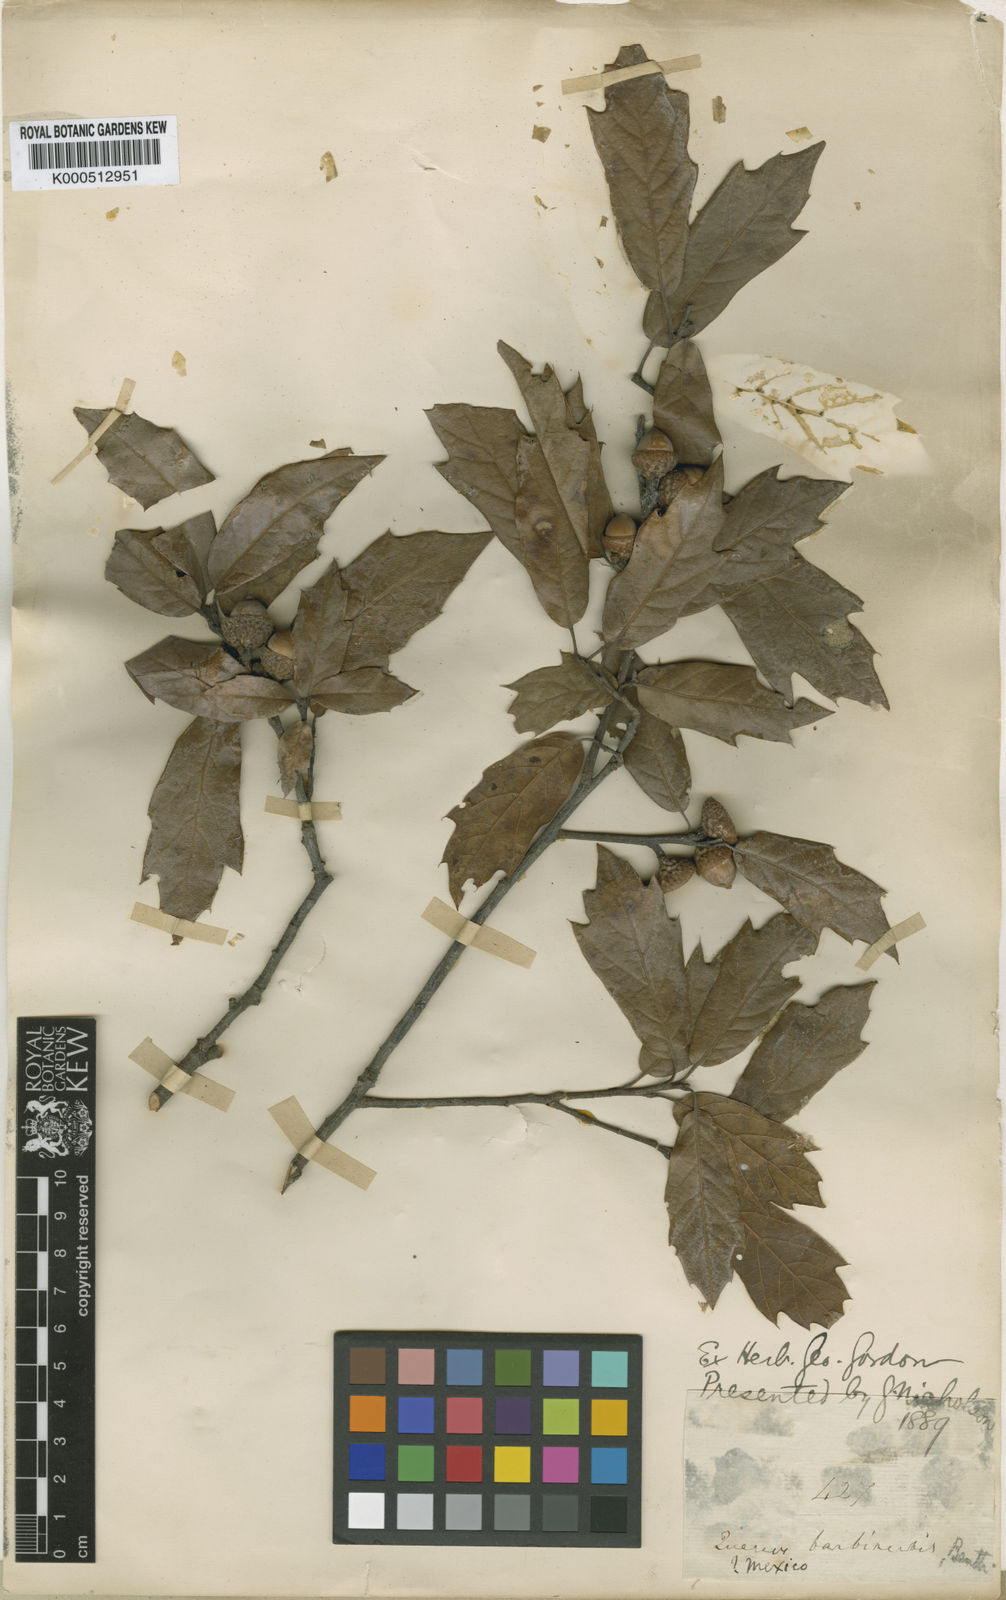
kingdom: Plantae
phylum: Tracheophyta
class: Magnoliopsida
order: Fagales
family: Fagaceae
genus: Quercus
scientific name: Quercus laurina
